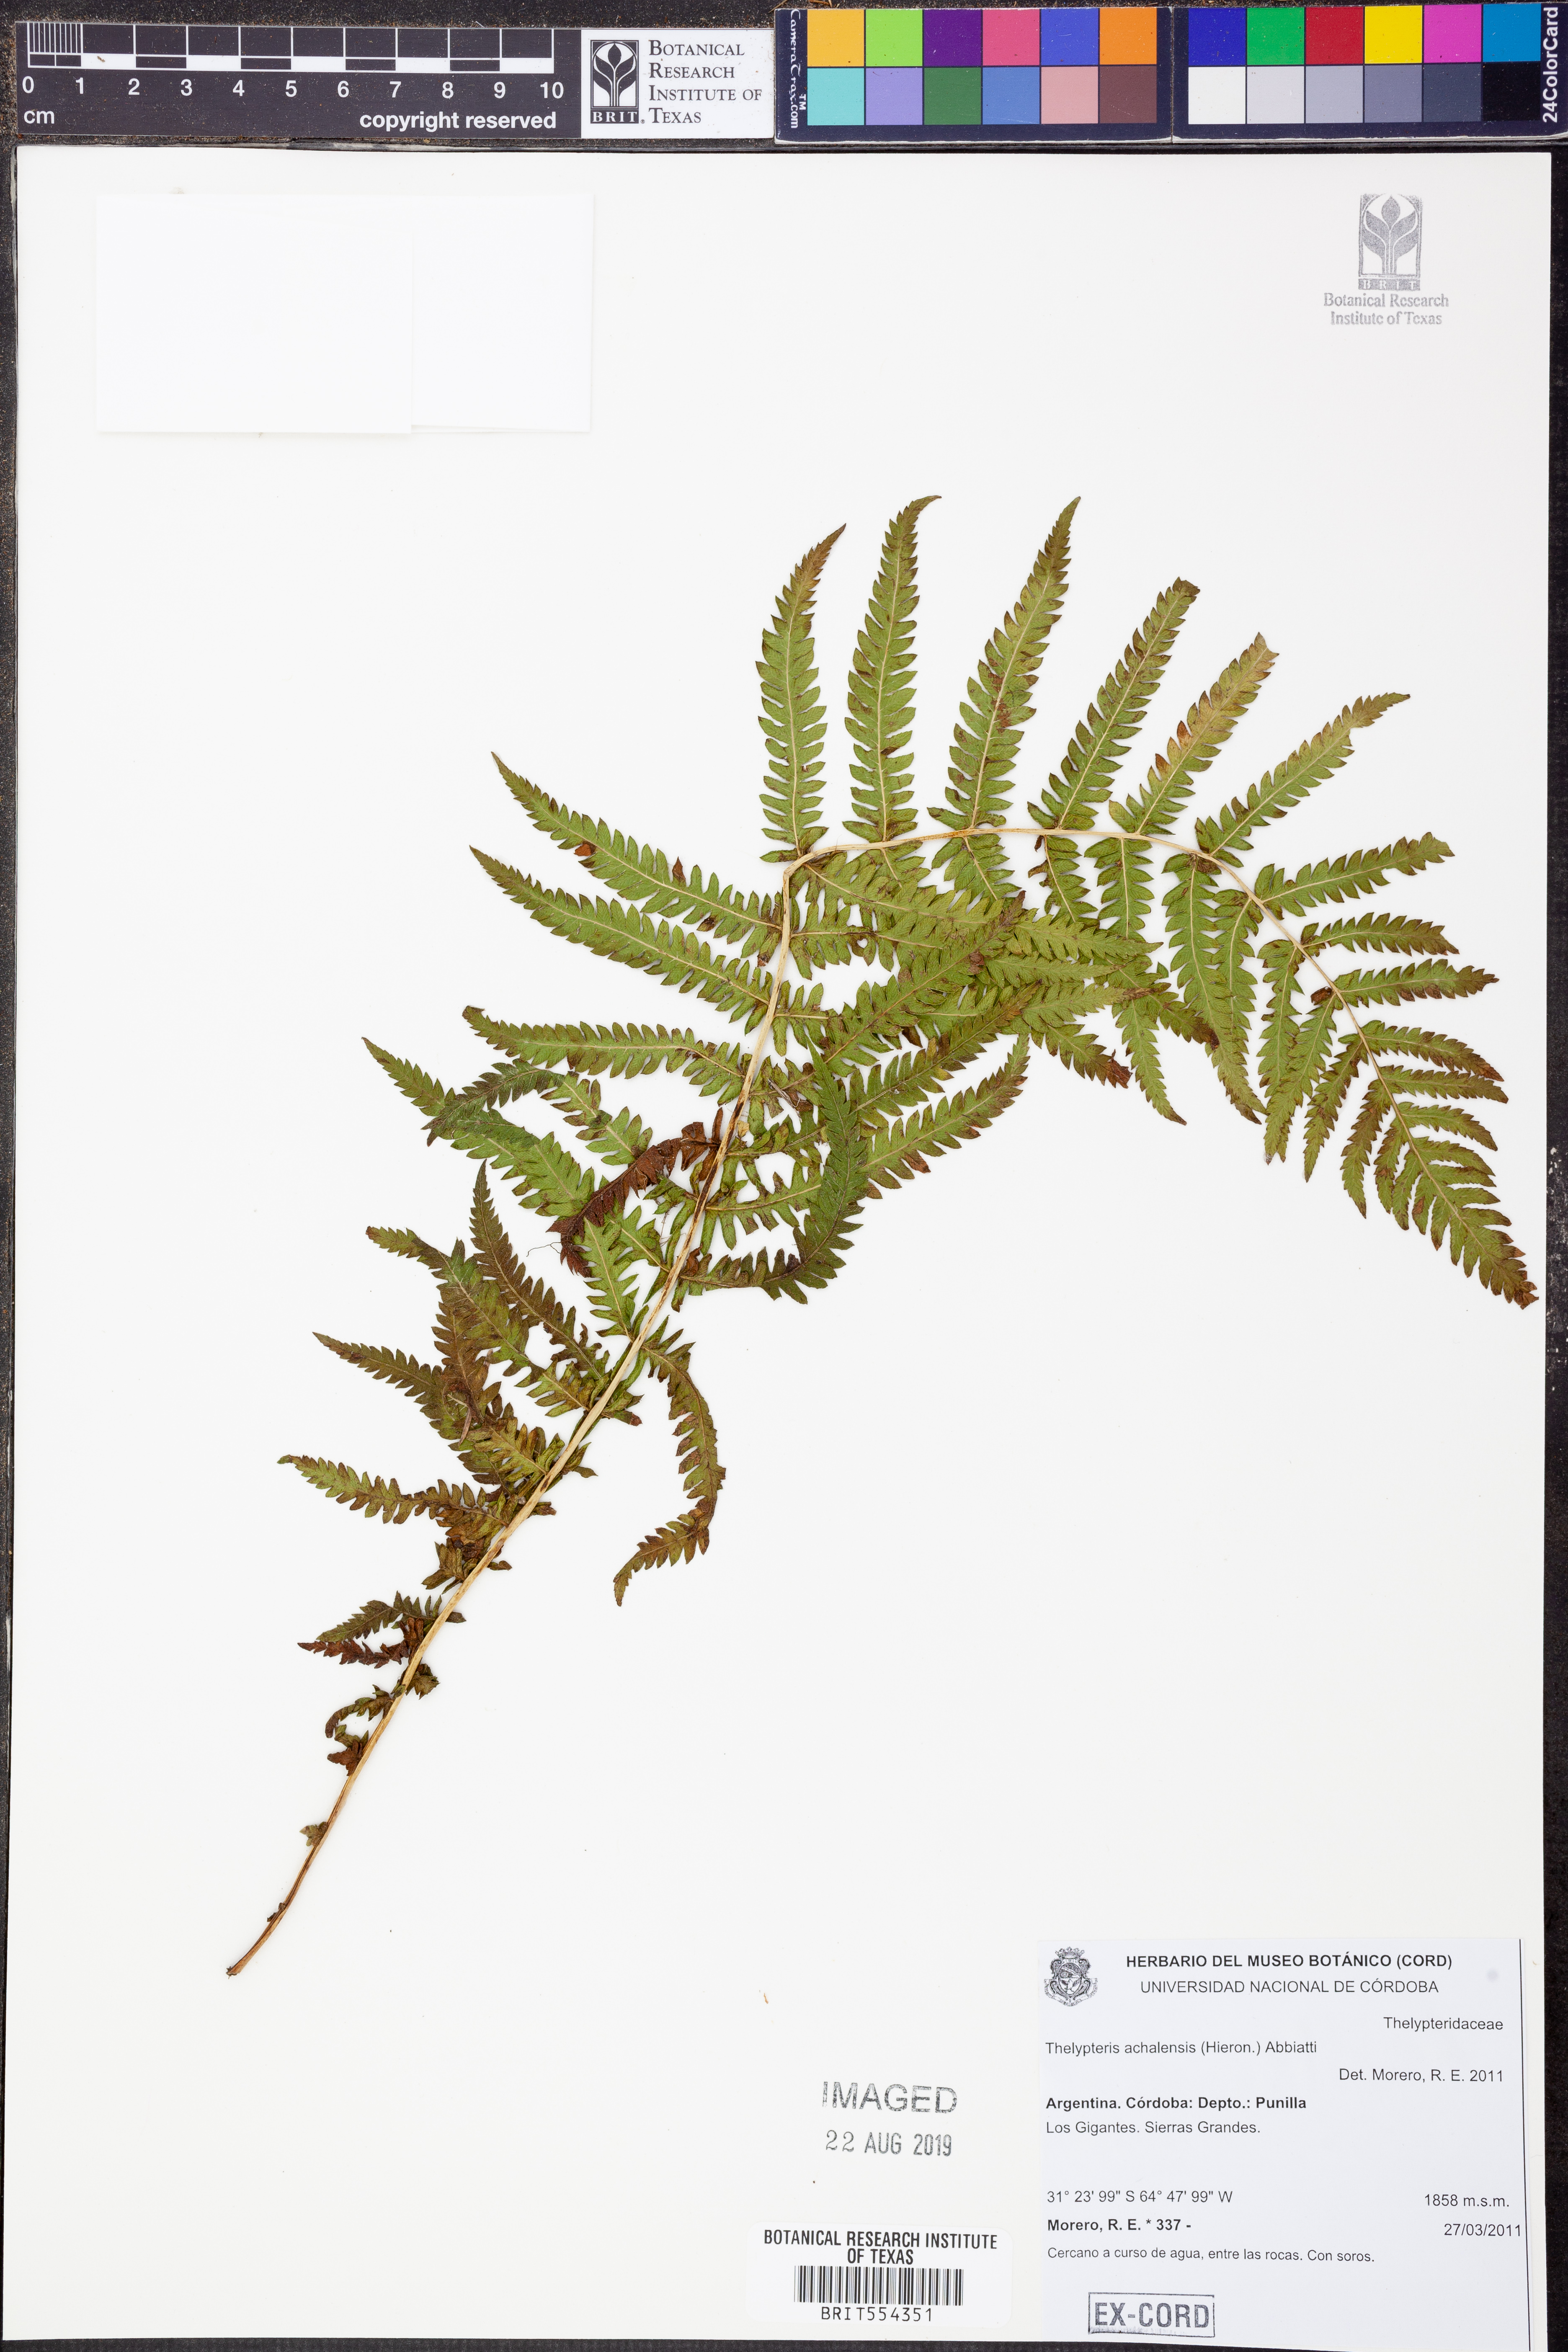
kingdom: Plantae
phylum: Tracheophyta
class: Polypodiopsida
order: Polypodiales
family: Thelypteridaceae
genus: Amauropelta
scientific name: Amauropelta achalensis
